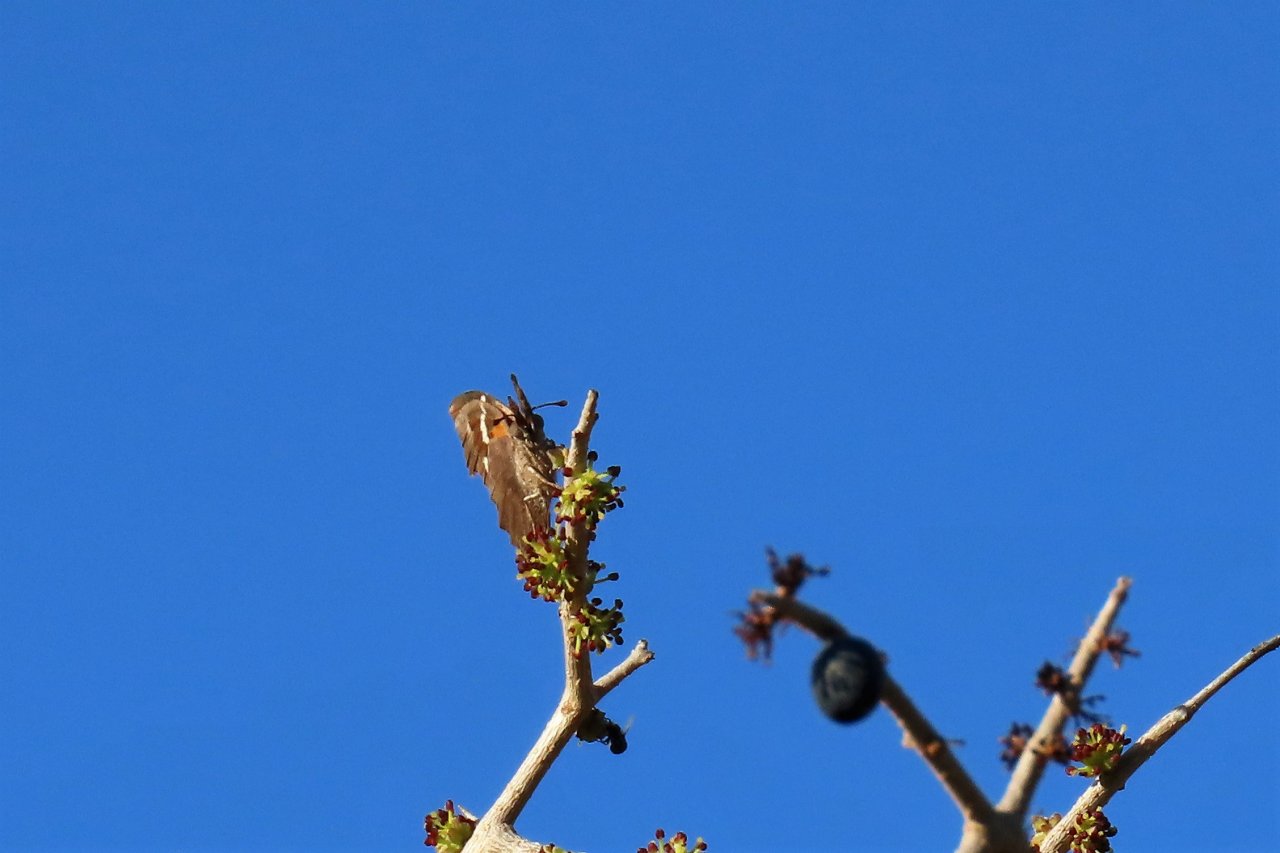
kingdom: Animalia
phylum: Arthropoda
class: Insecta
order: Lepidoptera
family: Nymphalidae
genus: Libytheana
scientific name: Libytheana carinenta
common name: American Snout
